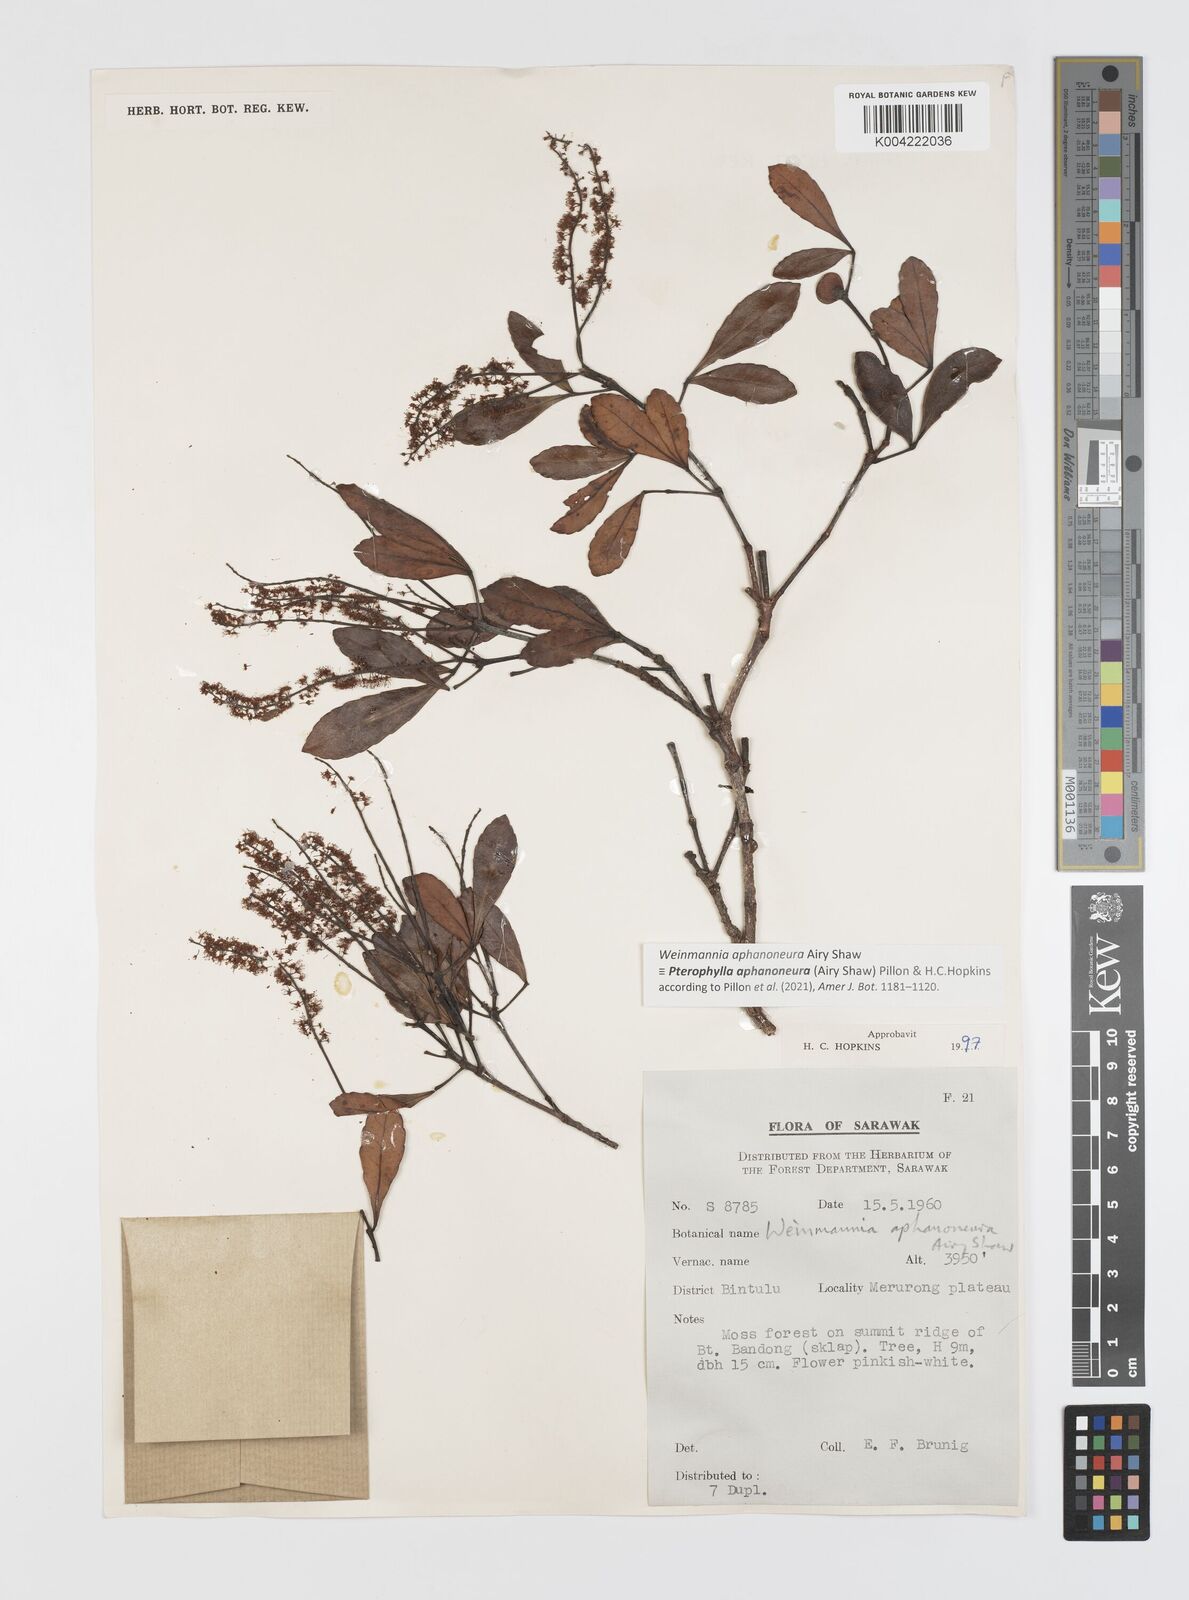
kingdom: Plantae
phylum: Tracheophyta
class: Magnoliopsida
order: Oxalidales
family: Cunoniaceae
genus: Pterophylla
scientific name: Pterophylla aphanoneura
